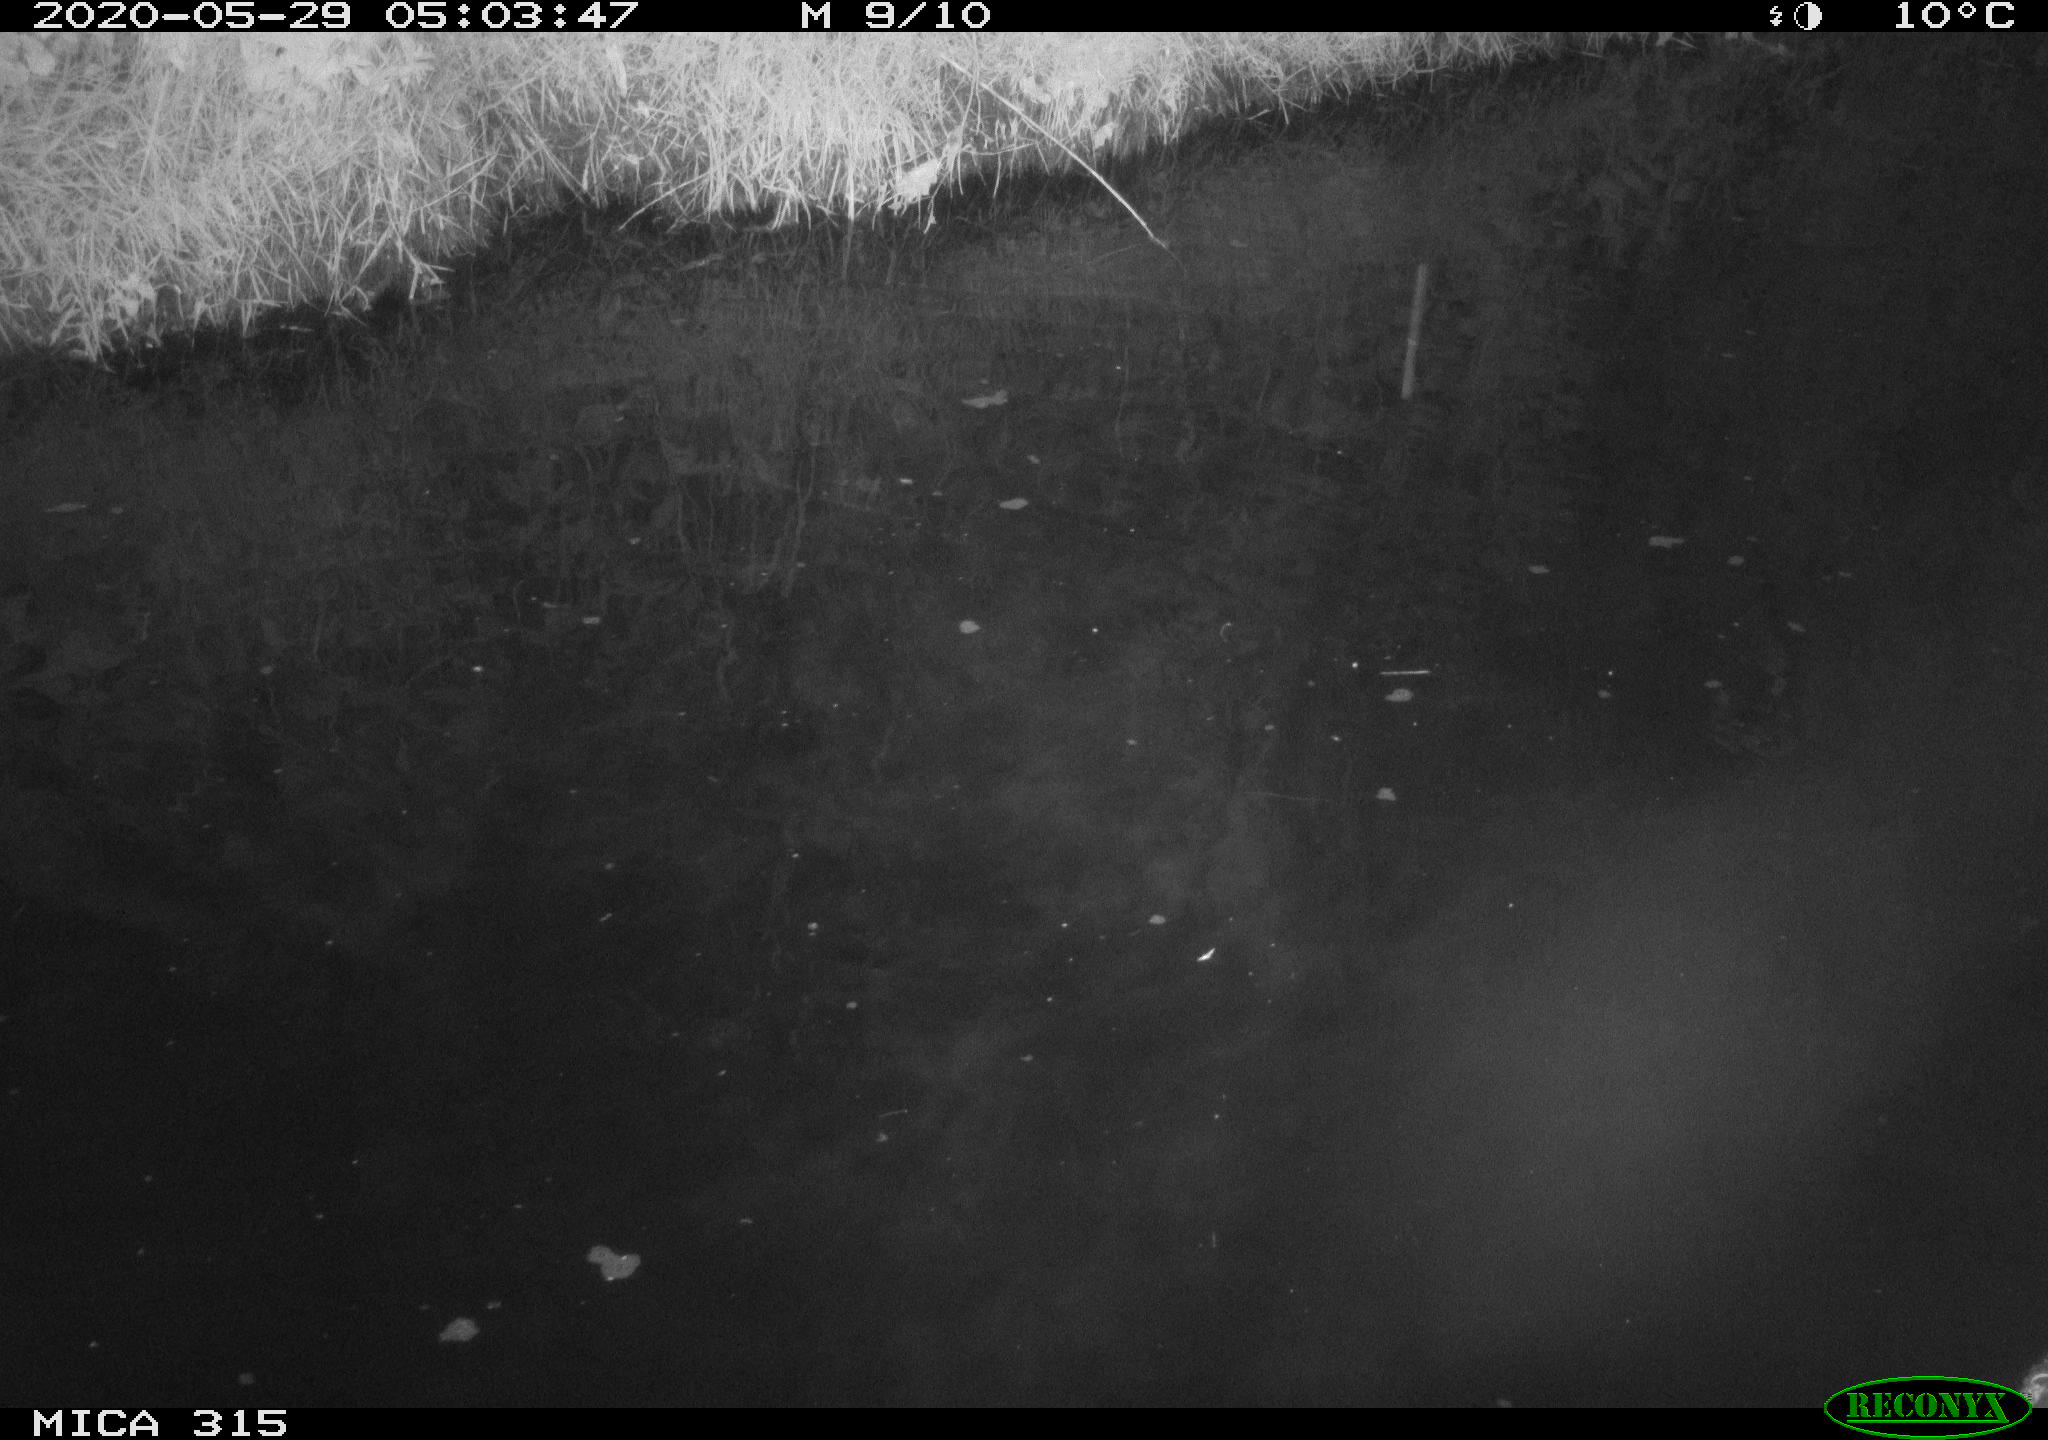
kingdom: Animalia
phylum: Chordata
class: Aves
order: Anseriformes
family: Anatidae
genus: Anas
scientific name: Anas platyrhynchos
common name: Mallard
